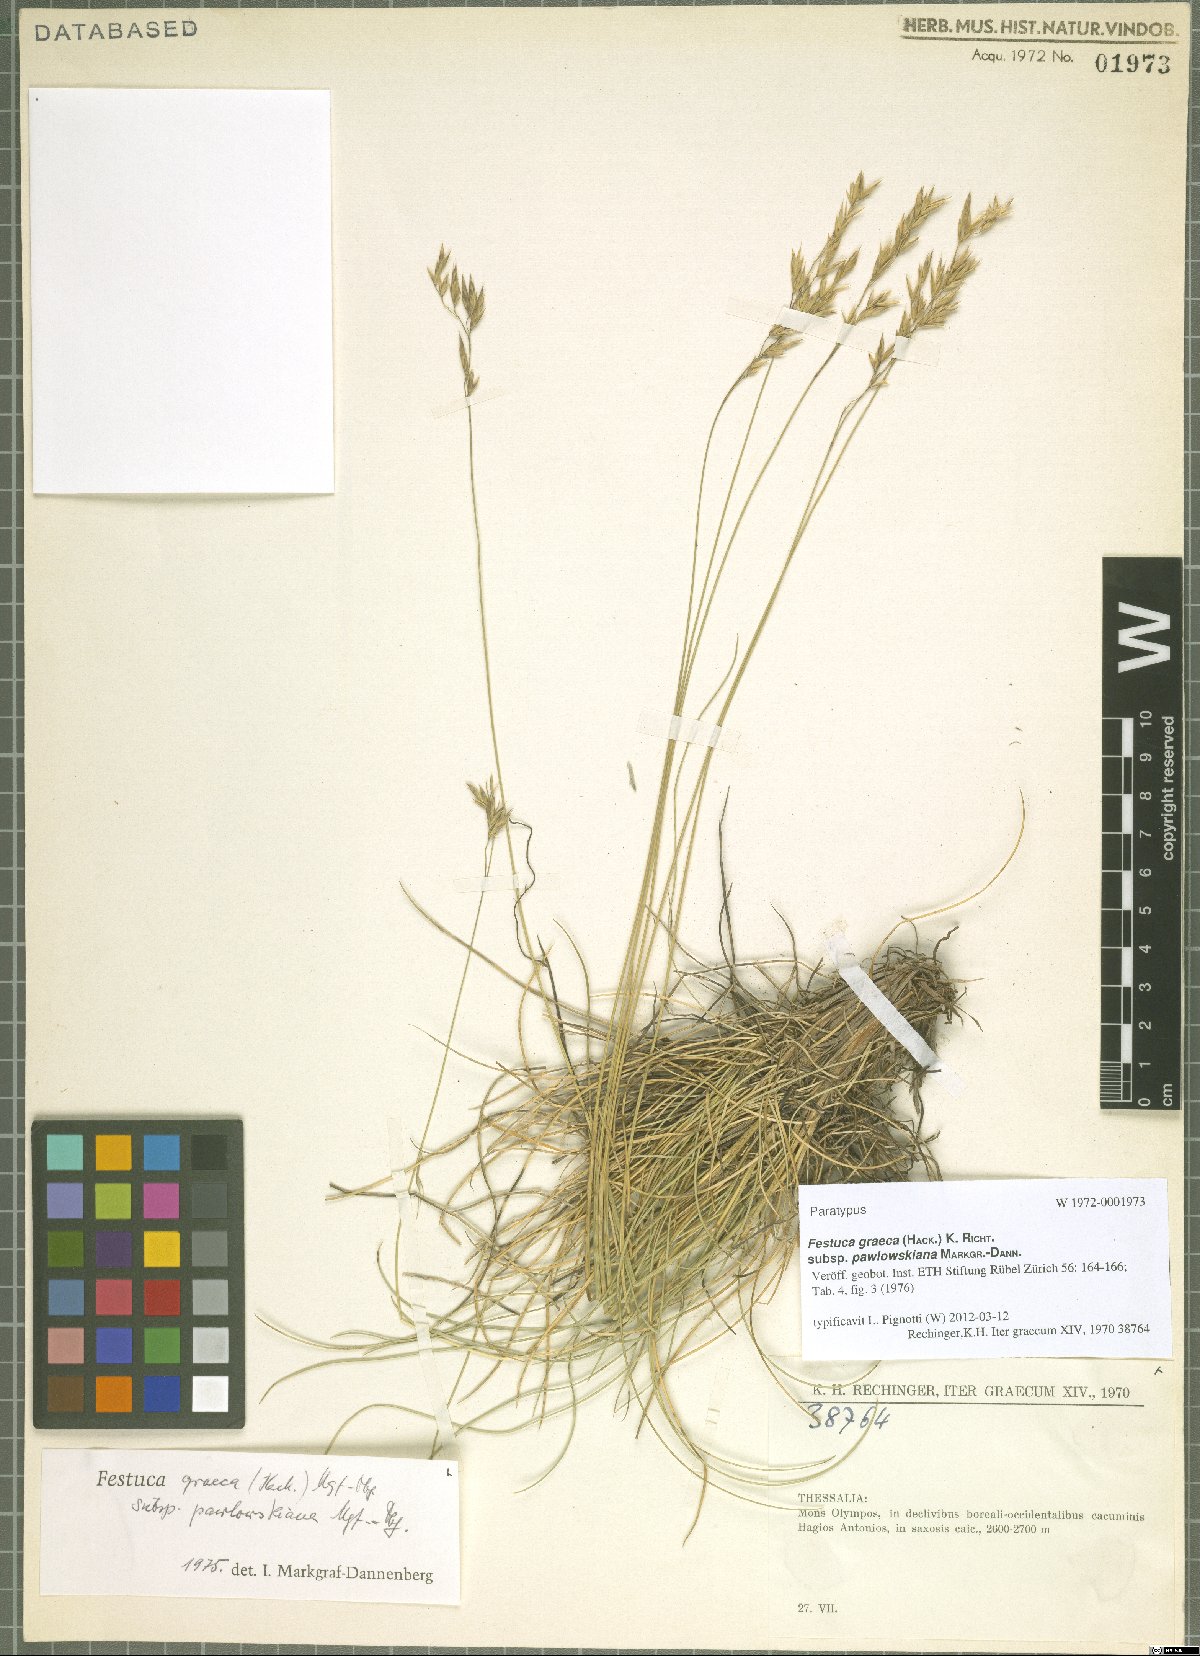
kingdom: Plantae
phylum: Tracheophyta
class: Liliopsida
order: Poales
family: Poaceae
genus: Festuca
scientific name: Festuca graeca
